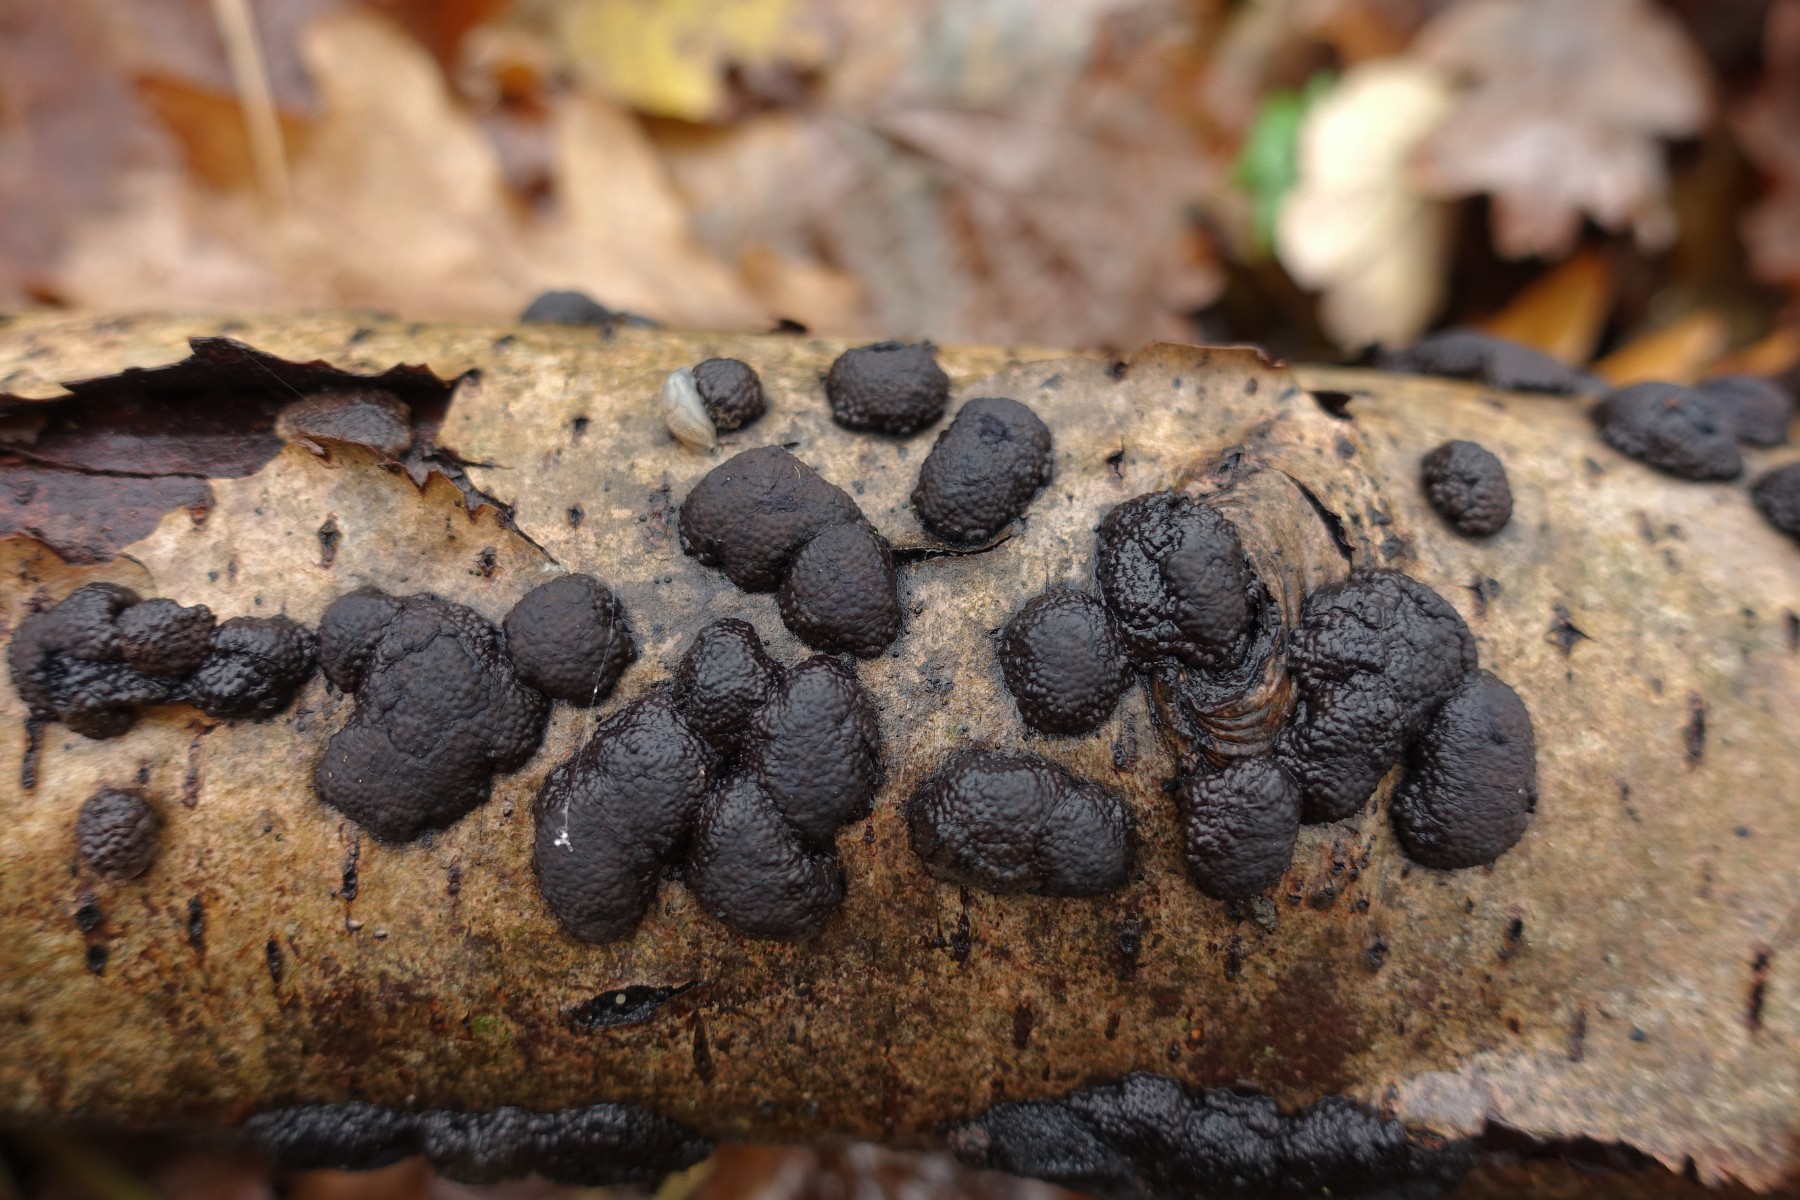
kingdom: Fungi
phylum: Ascomycota
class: Sordariomycetes
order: Xylariales
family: Hypoxylaceae
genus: Jackrogersella
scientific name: Jackrogersella multiformis
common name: foranderlig kulbær
